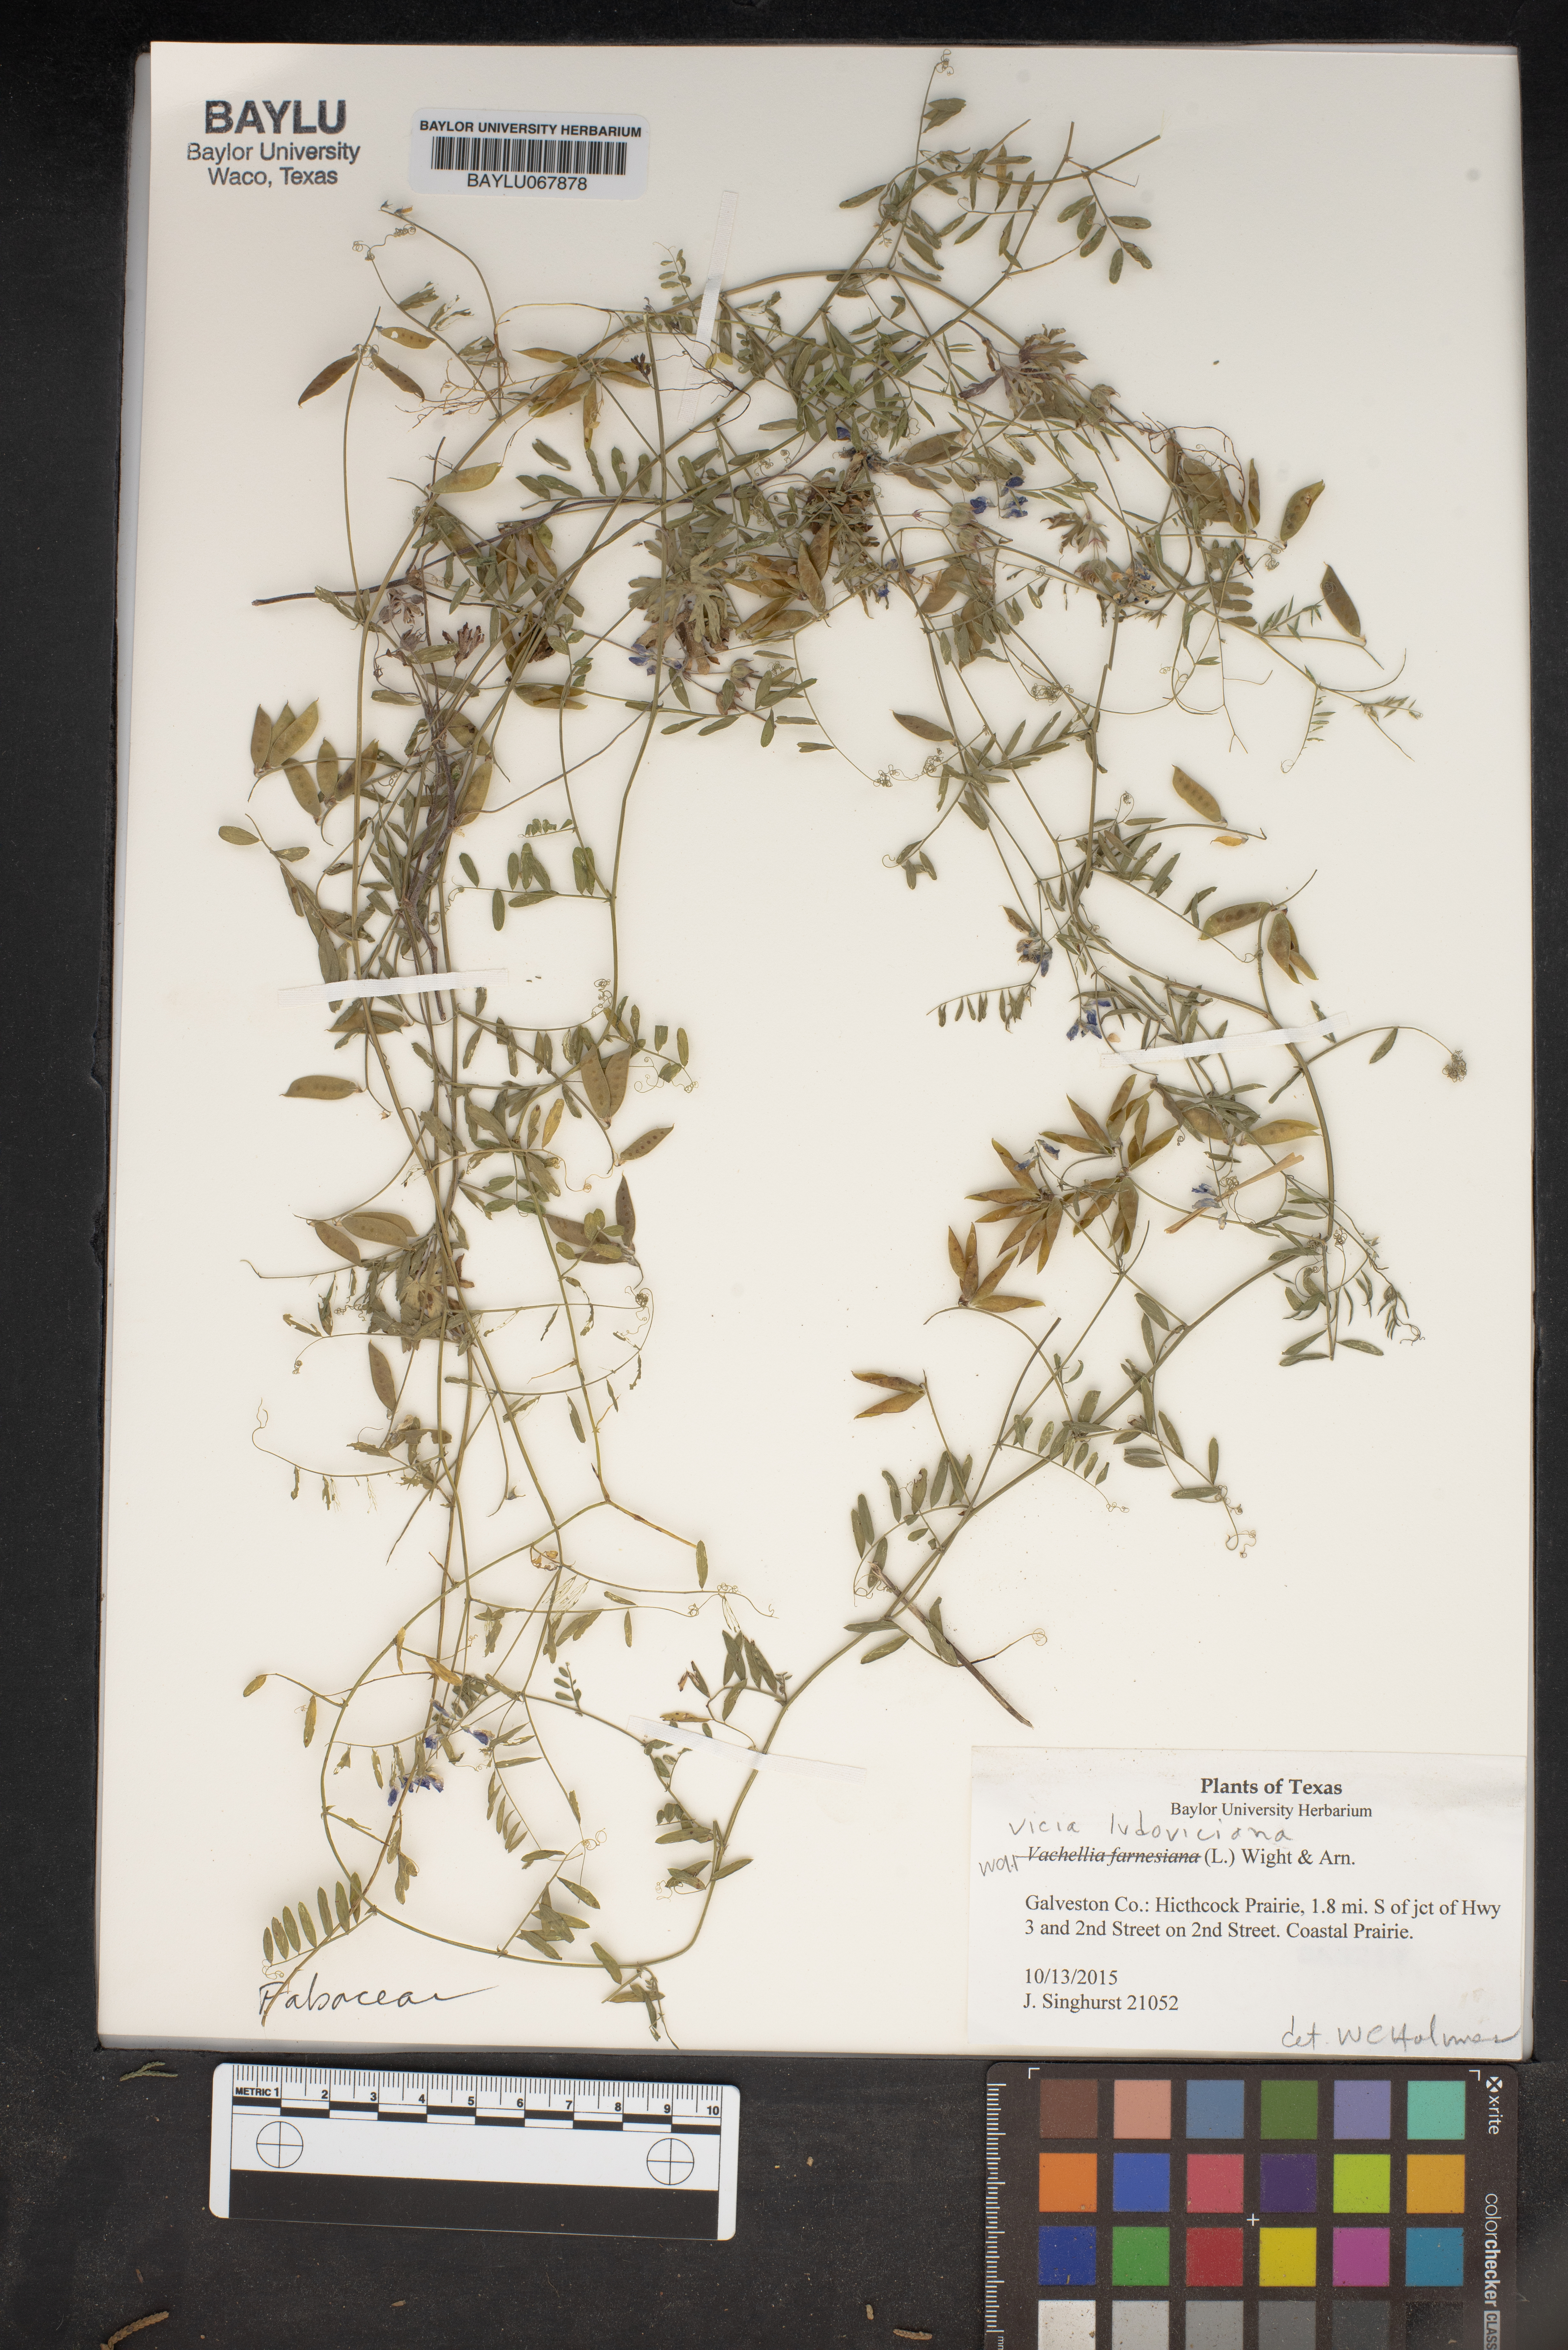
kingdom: Plantae
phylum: Tracheophyta
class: Magnoliopsida
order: Fabales
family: Fabaceae
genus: Vicia
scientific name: Vicia ludoviciana
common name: Louisiana vetch
